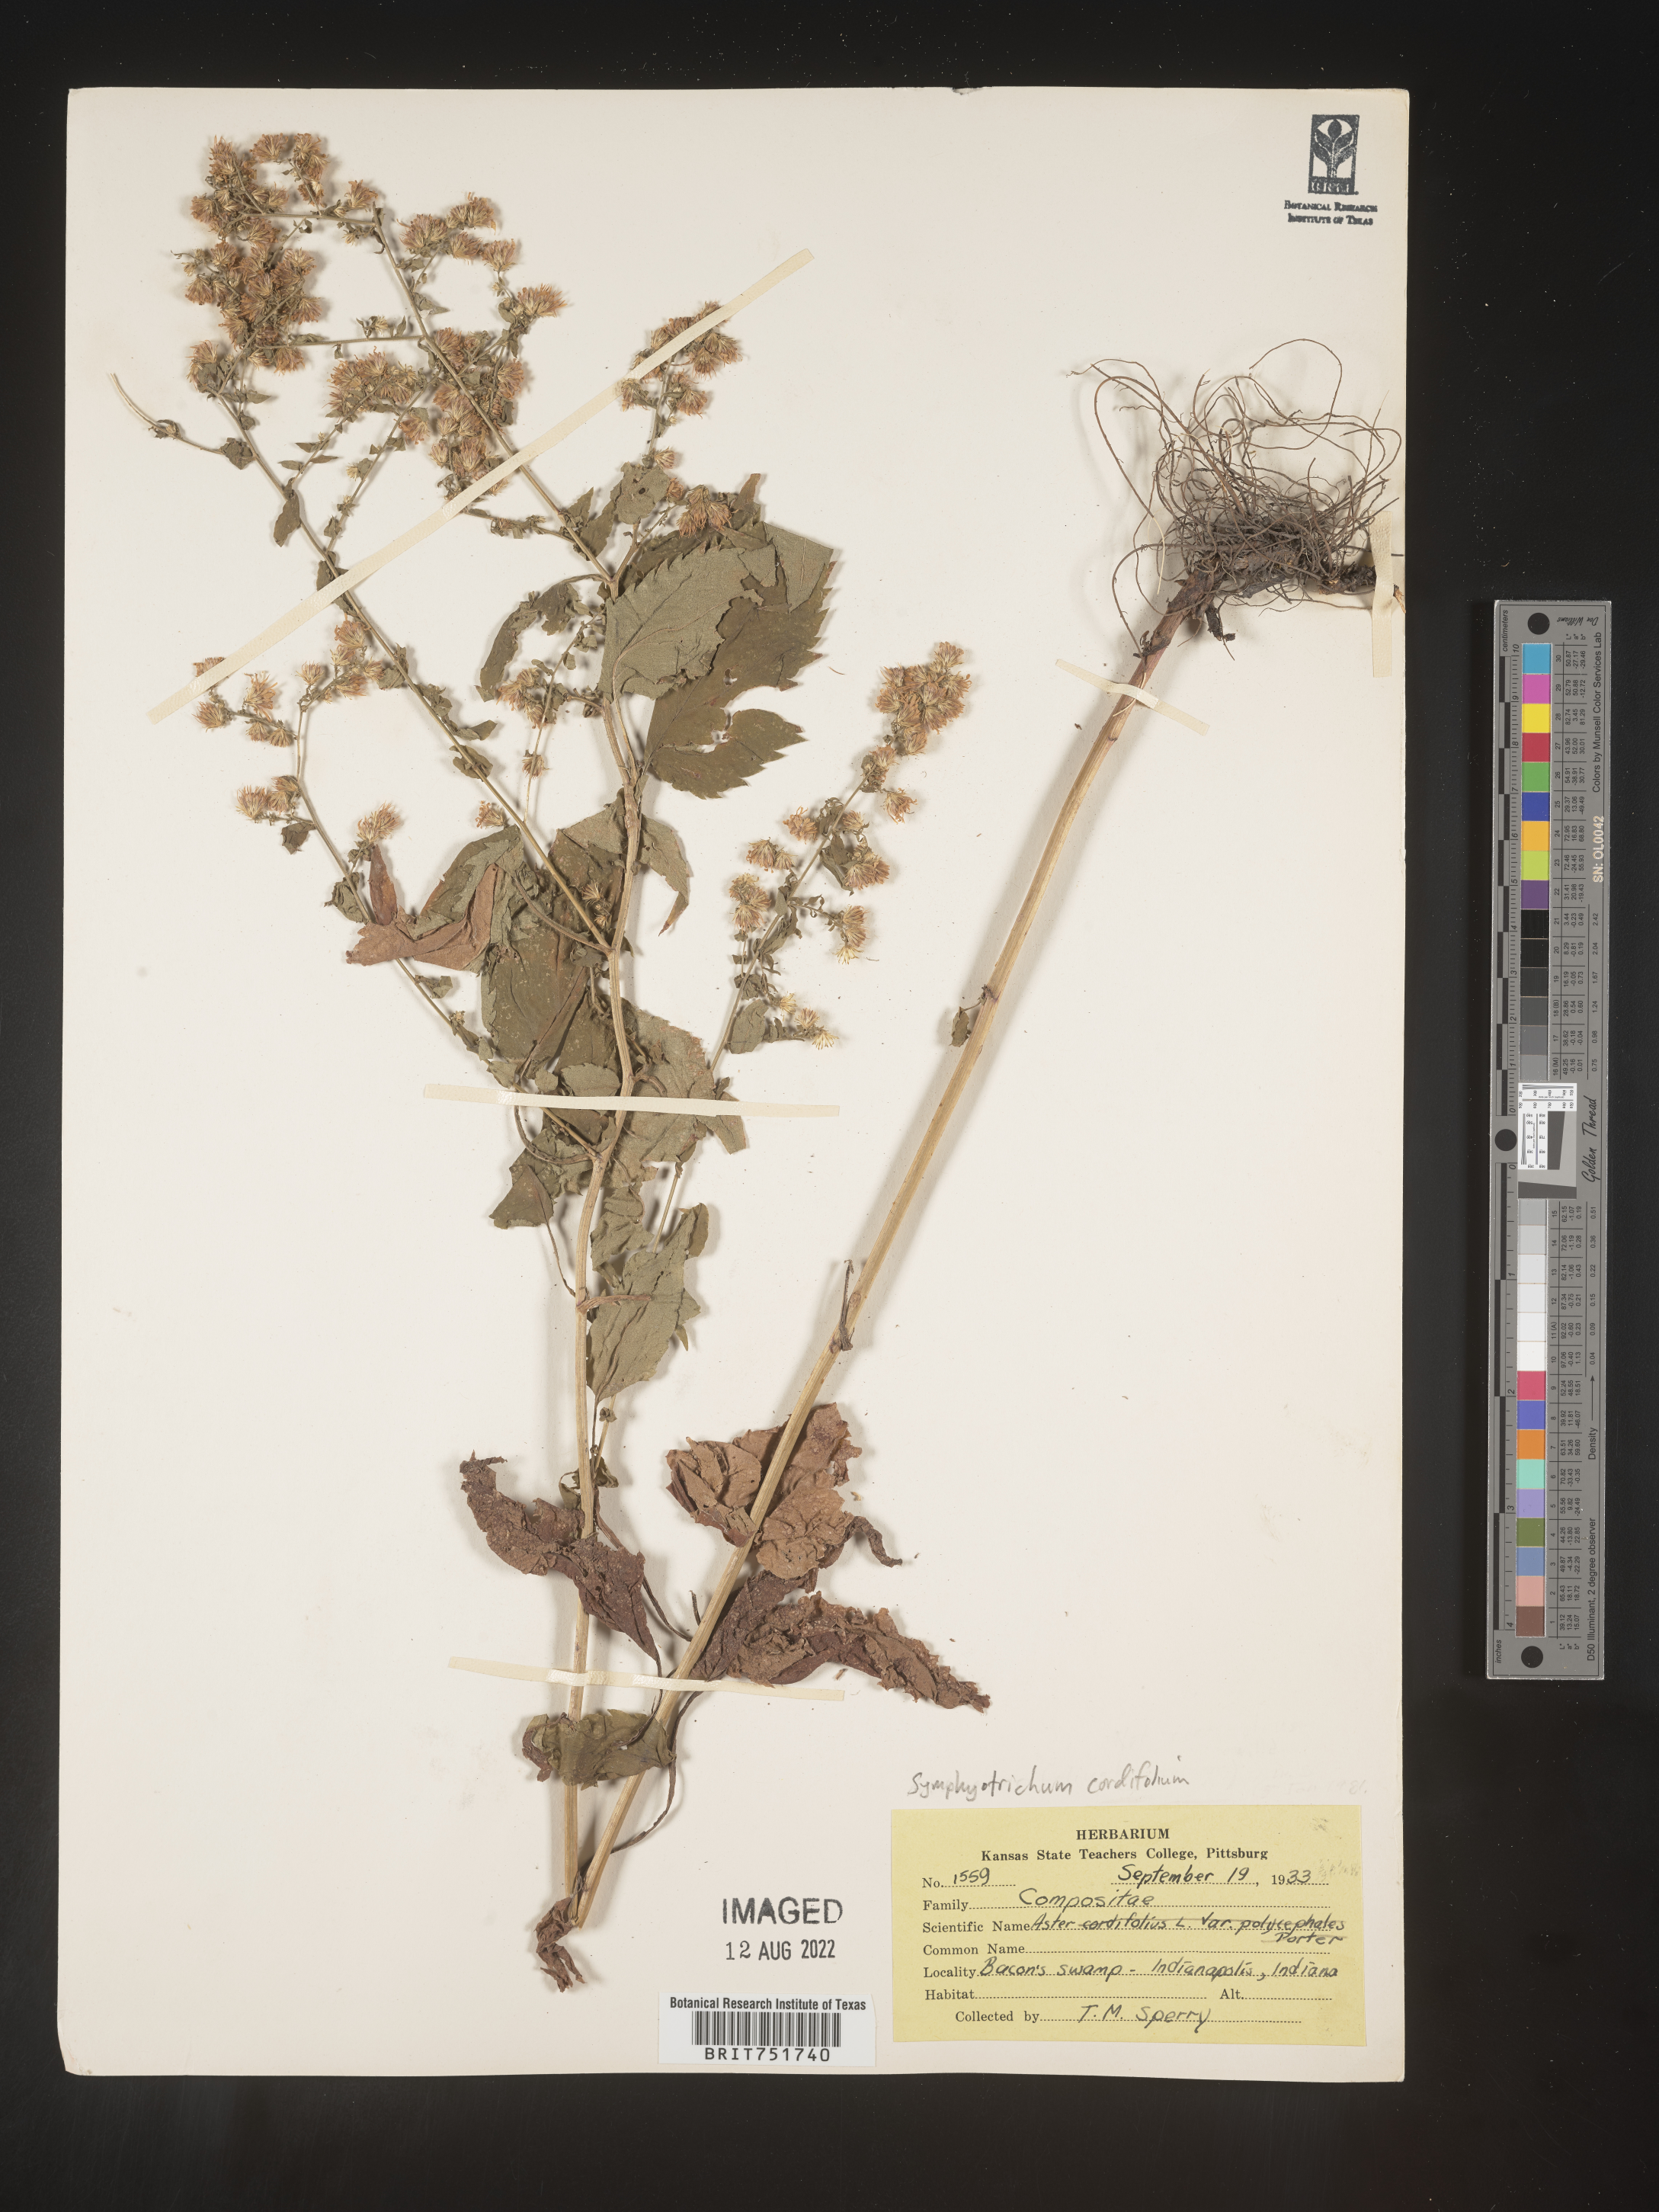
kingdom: Plantae
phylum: Tracheophyta
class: Magnoliopsida
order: Asterales
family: Asteraceae
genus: Symphyotrichum
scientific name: Symphyotrichum cordifolium
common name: Beeweed
